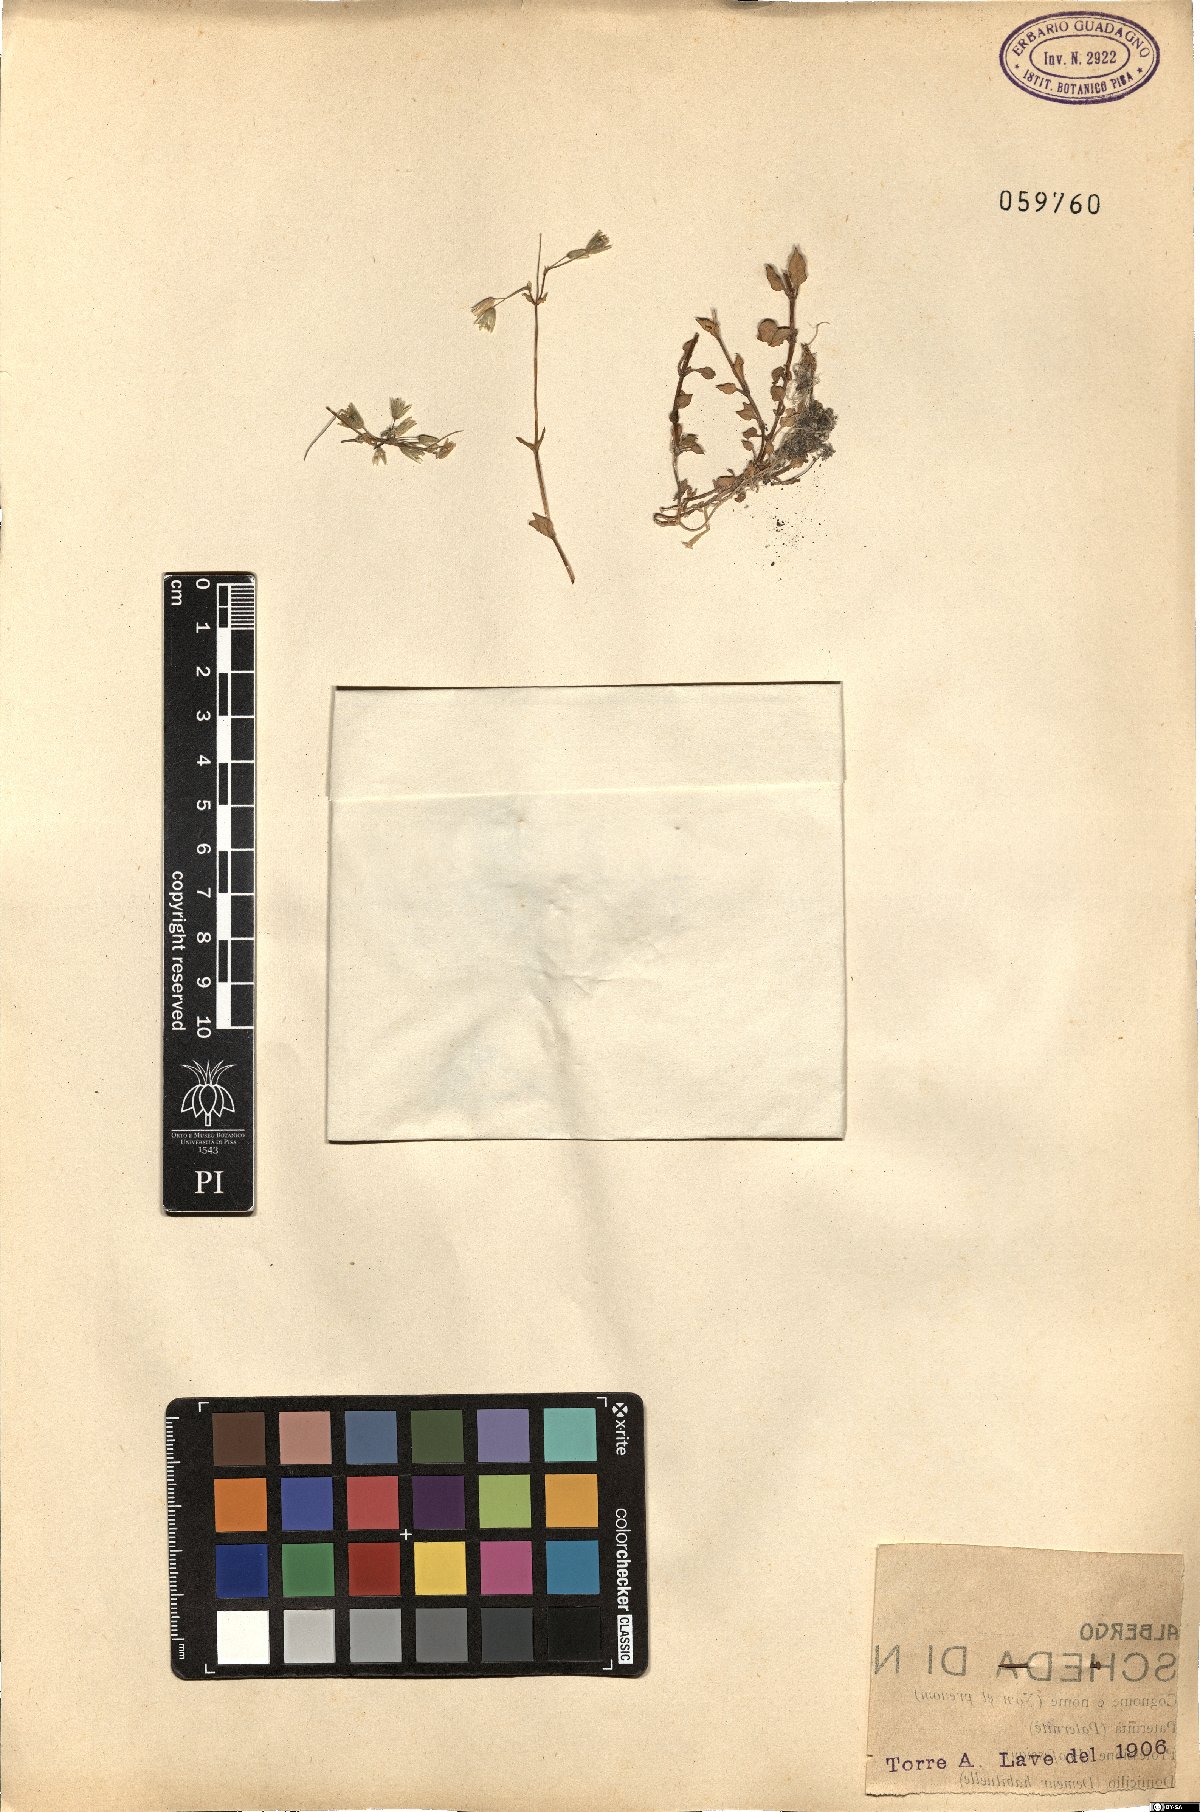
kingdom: Plantae
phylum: Tracheophyta
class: Magnoliopsida
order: Caryophyllales
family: Caryophyllaceae
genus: Cerastium
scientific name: Cerastium
